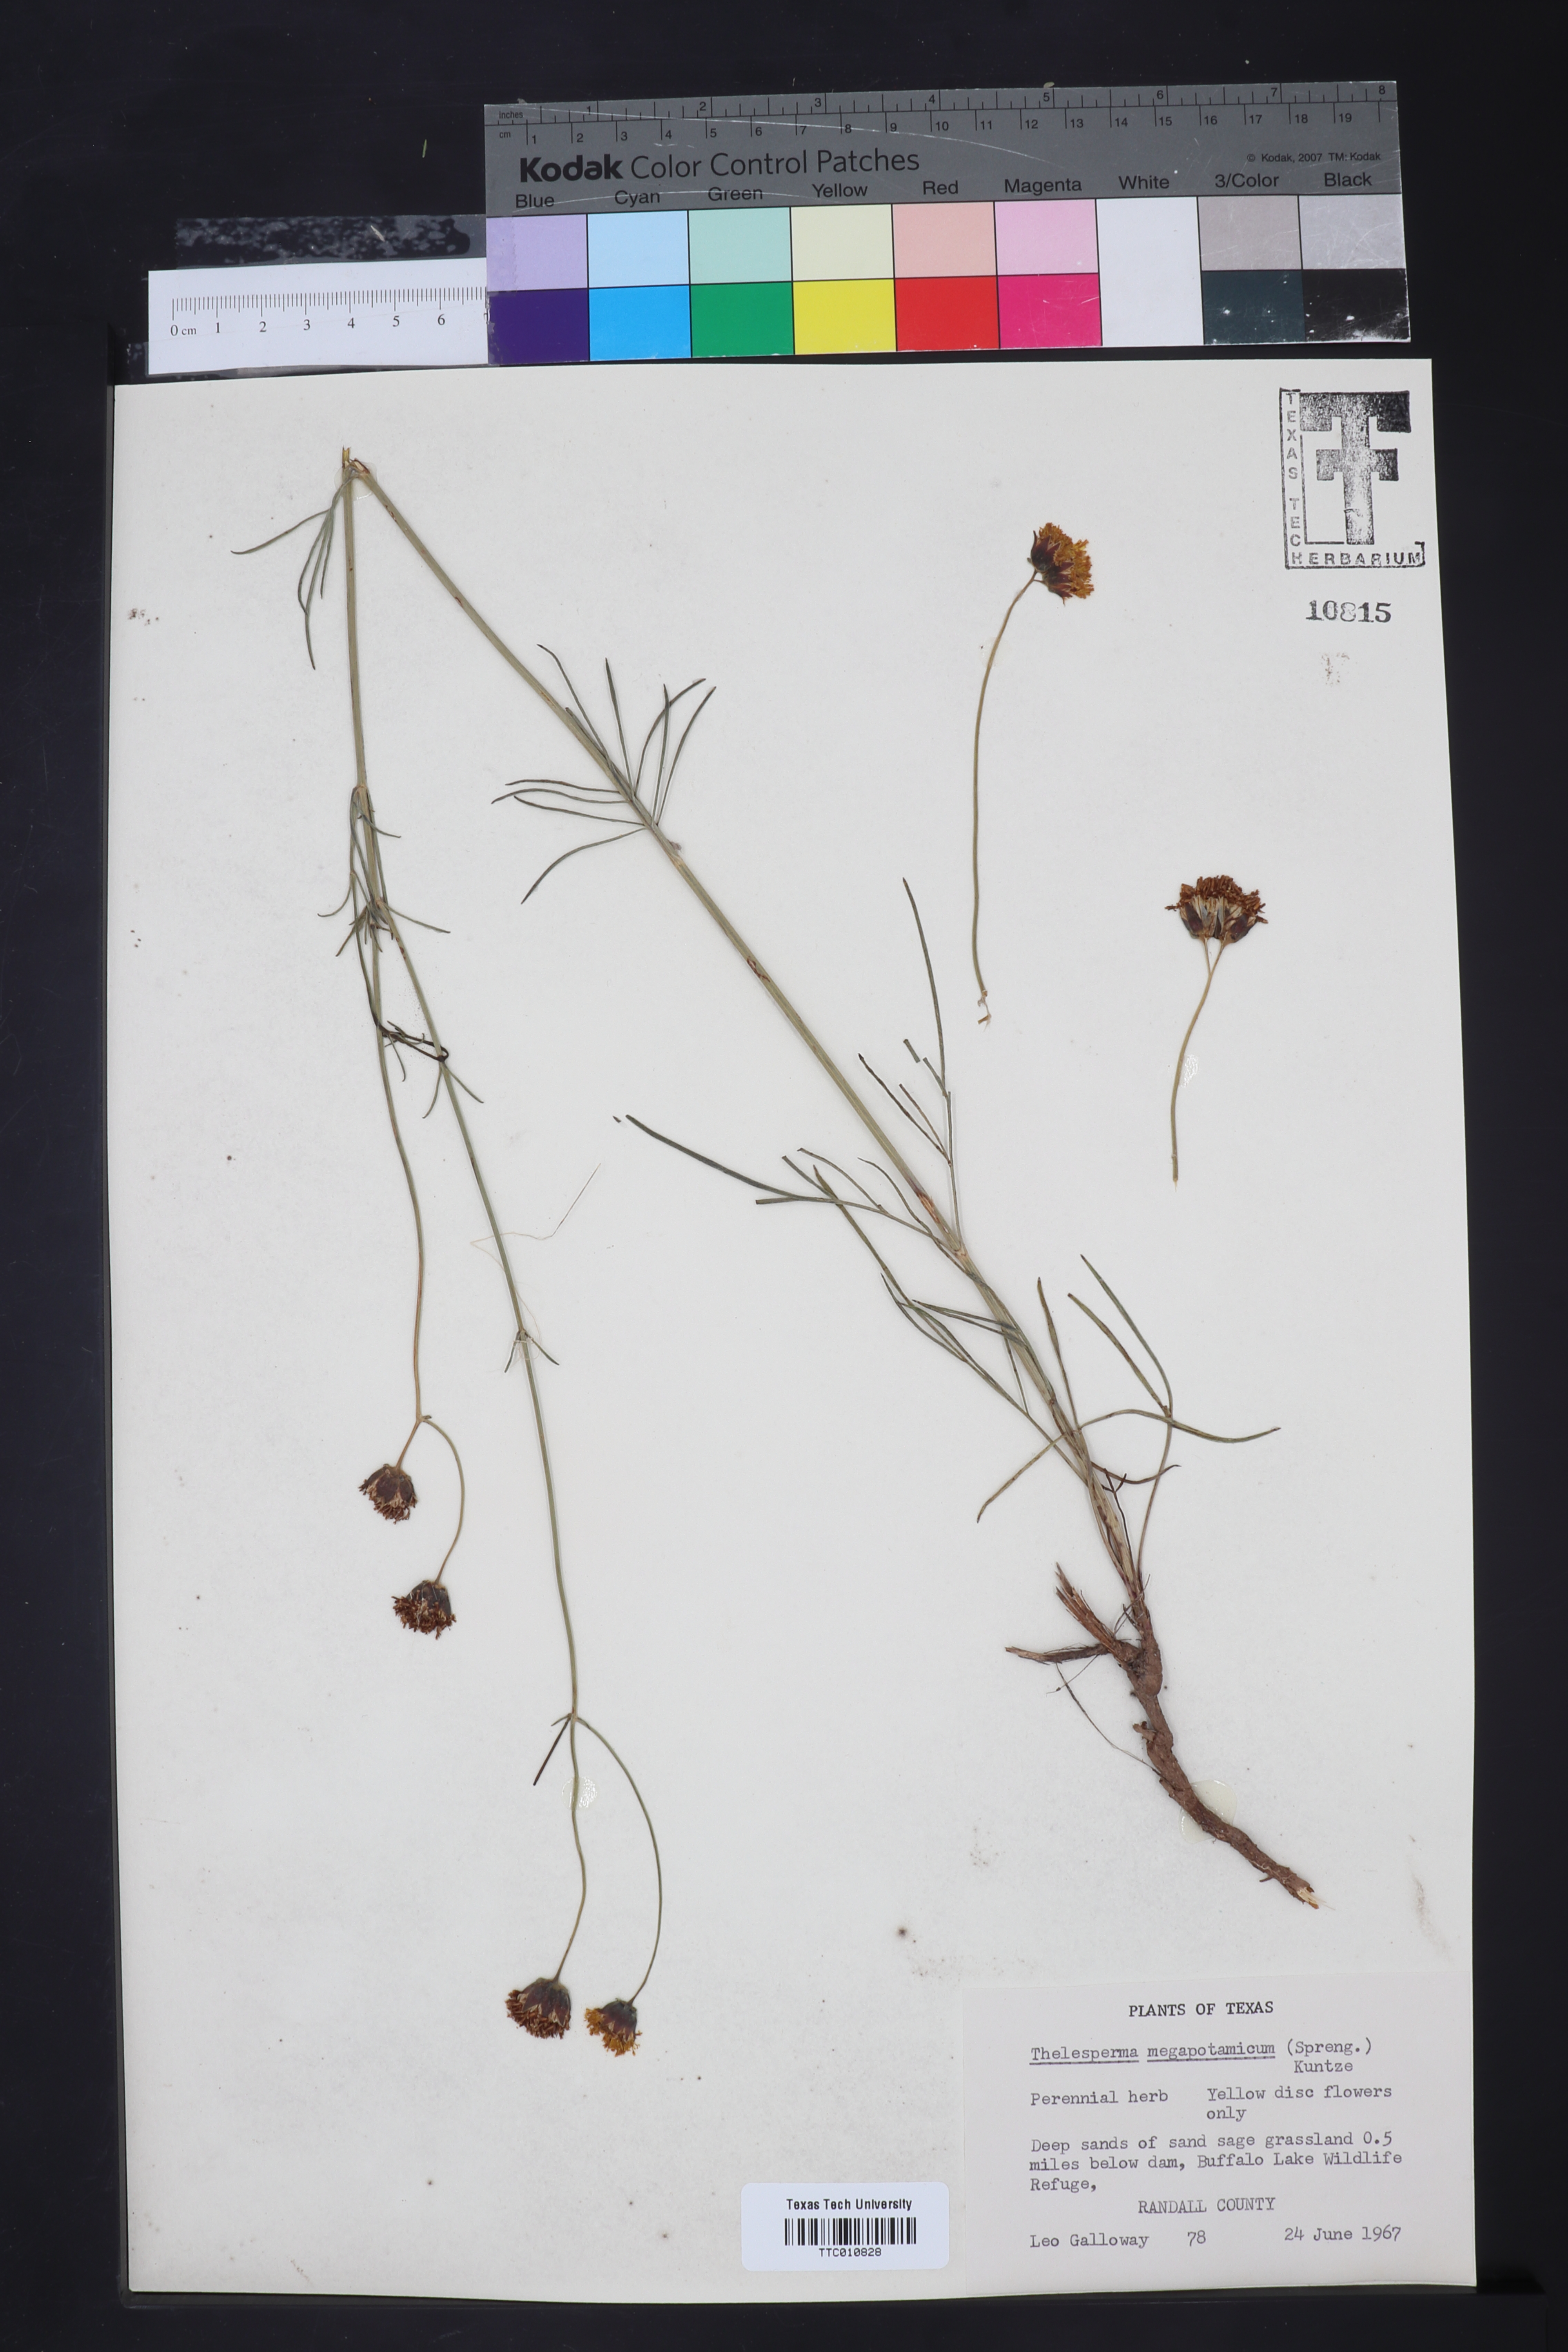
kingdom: Plantae
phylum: Tracheophyta
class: Magnoliopsida
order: Asterales
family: Asteraceae
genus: Thelesperma
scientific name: Thelesperma megapotamicum
